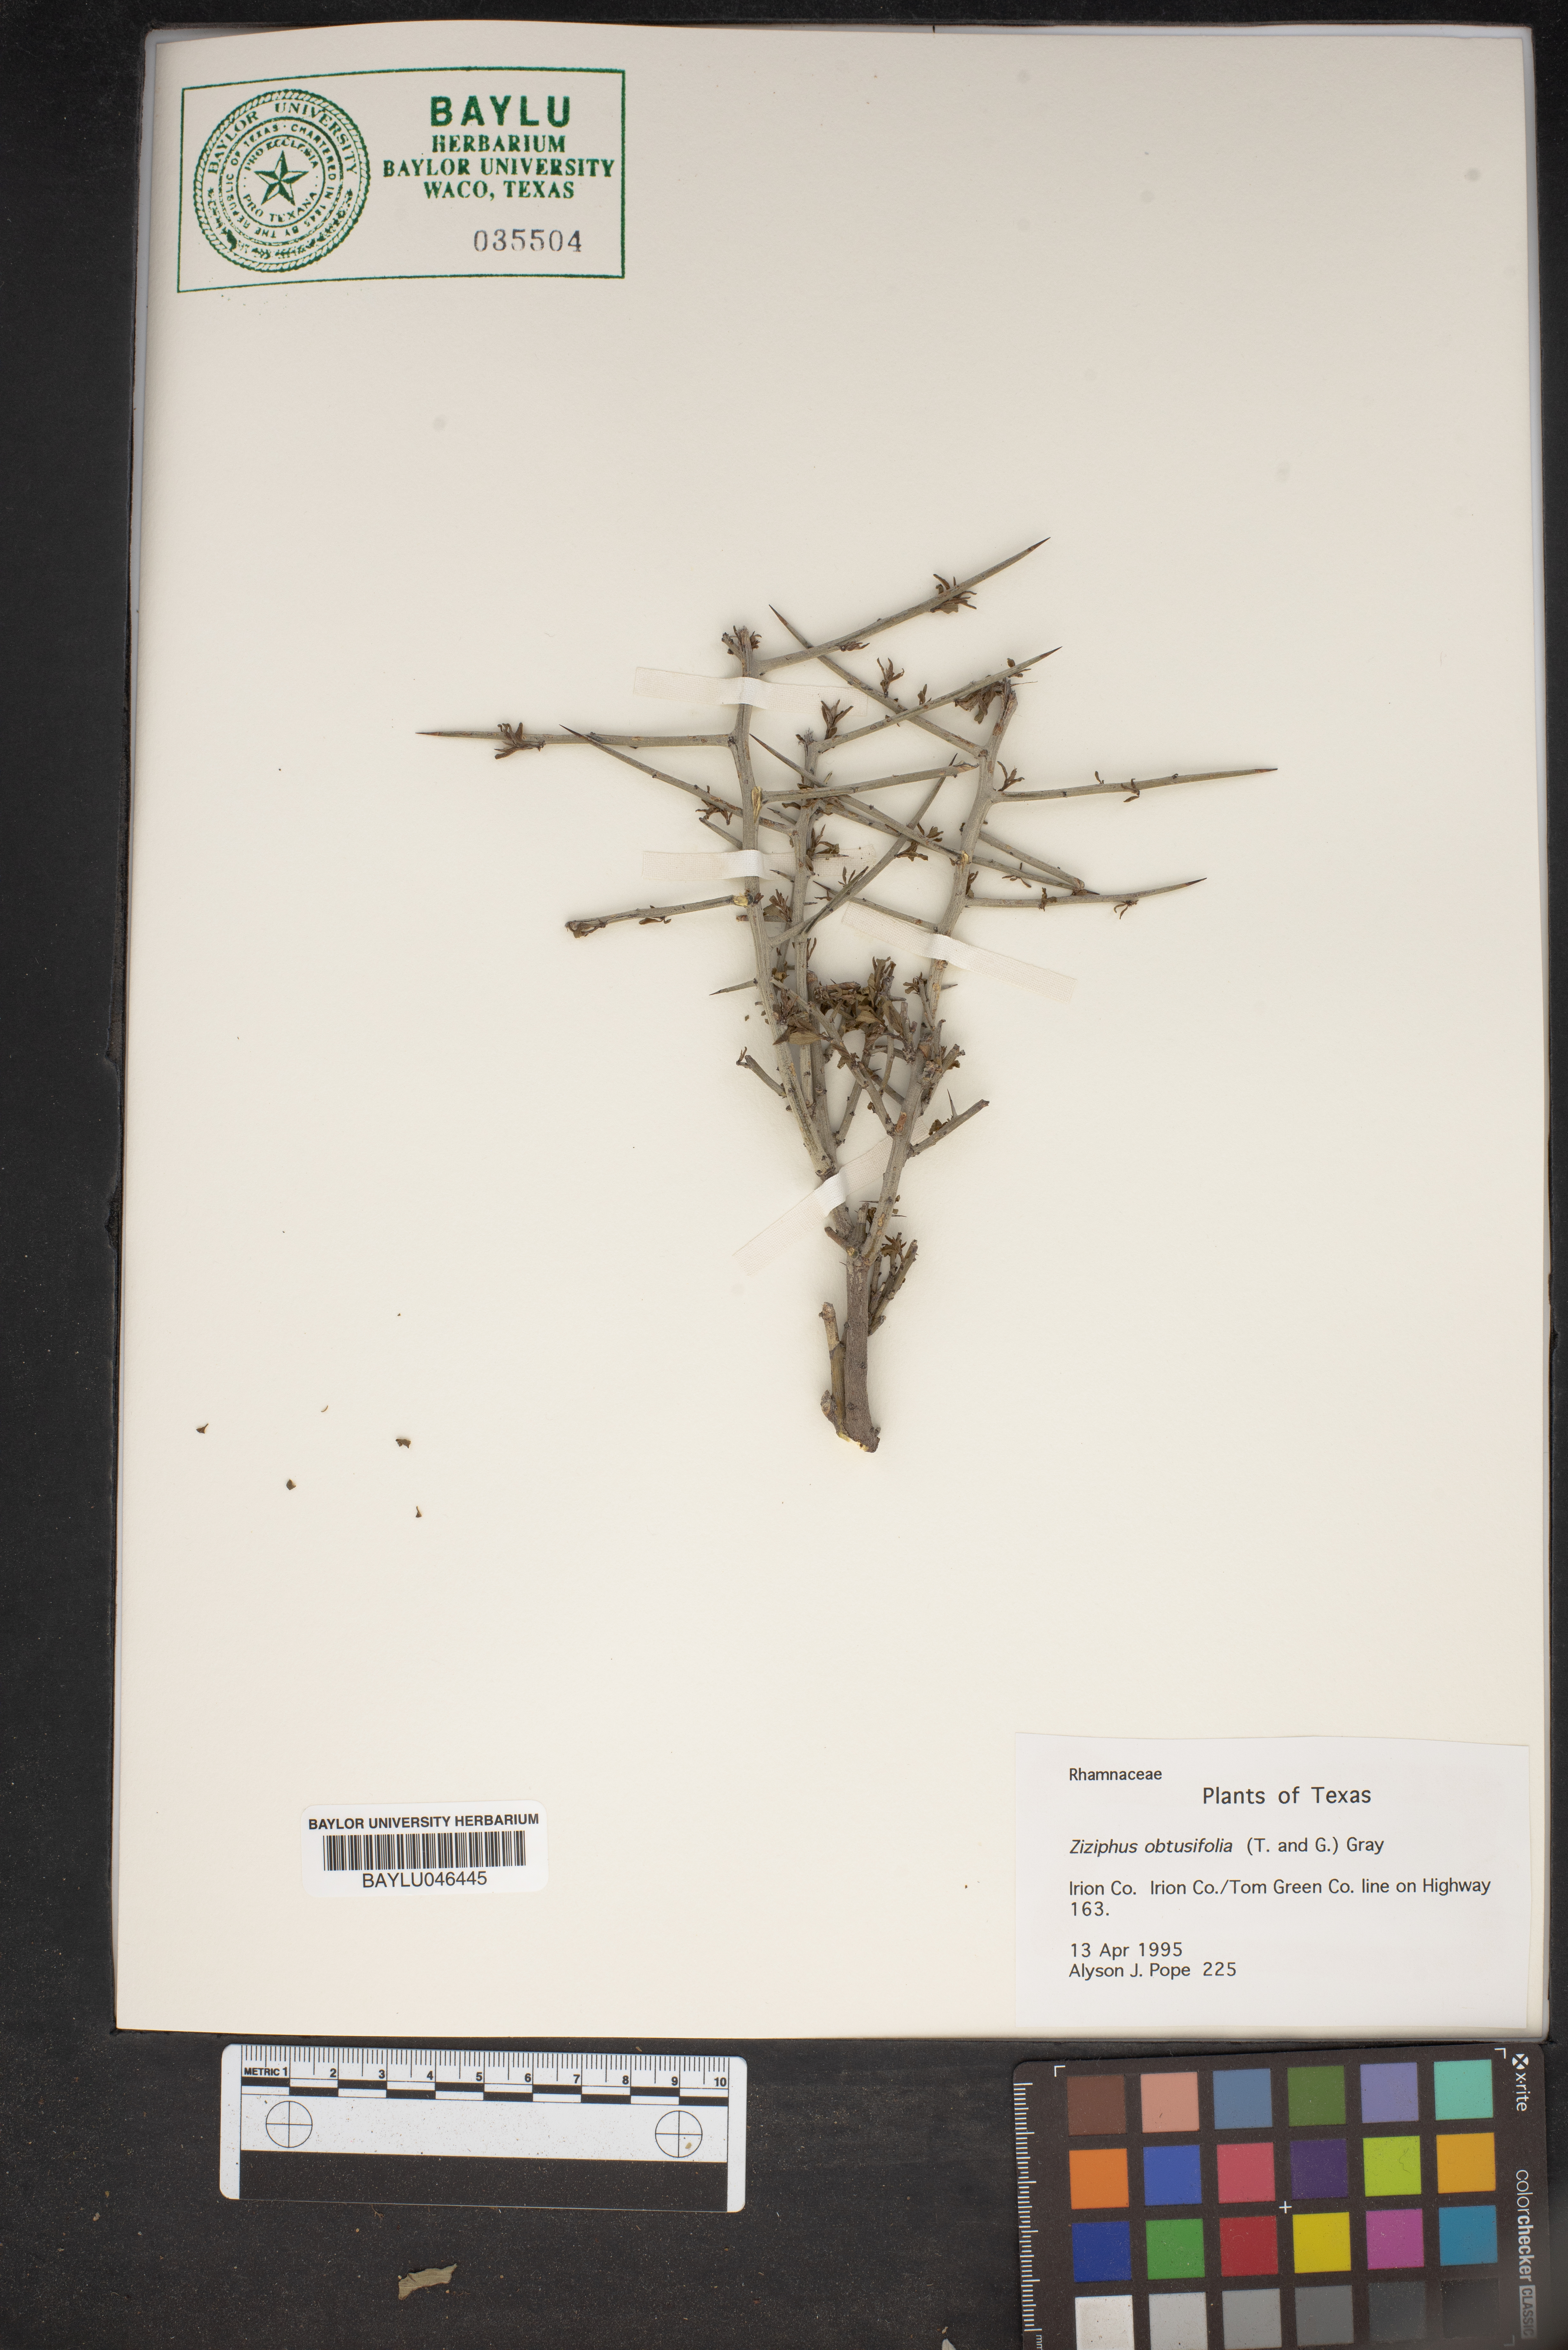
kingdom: Plantae
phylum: Tracheophyta
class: Magnoliopsida
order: Rosales
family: Rhamnaceae
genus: Sarcomphalus
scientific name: Sarcomphalus obtusifolius
